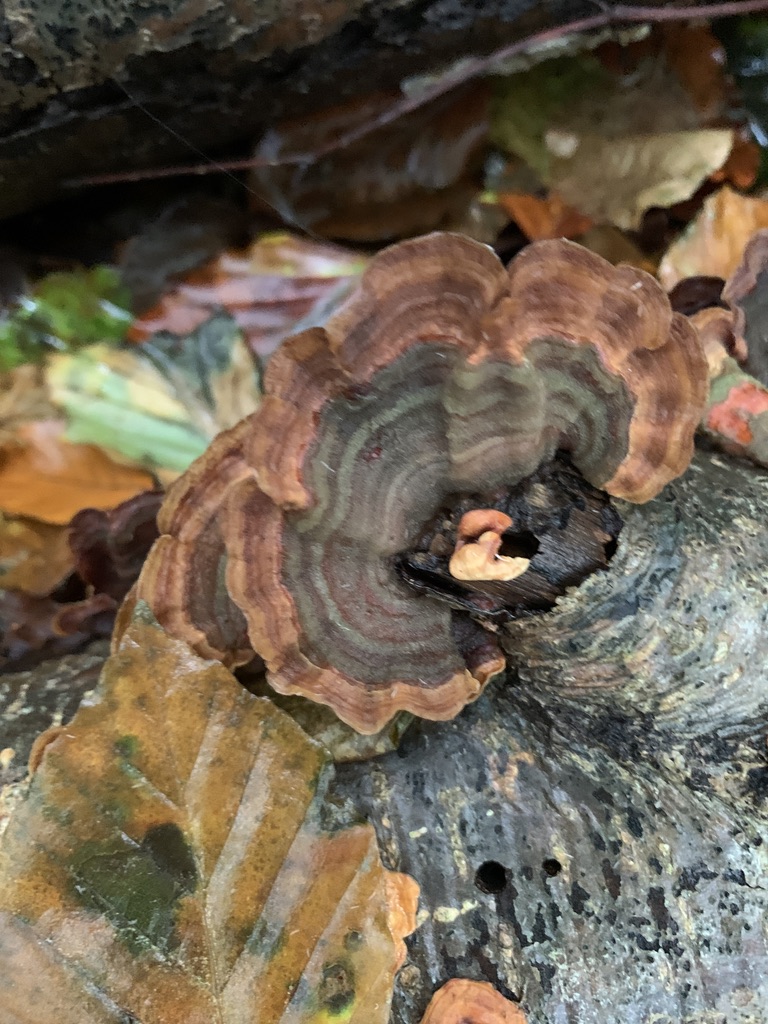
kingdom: Fungi
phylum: Basidiomycota
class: Agaricomycetes
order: Russulales
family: Stereaceae
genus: Stereum
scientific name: Stereum subtomentosum
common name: smuk lædersvamp
